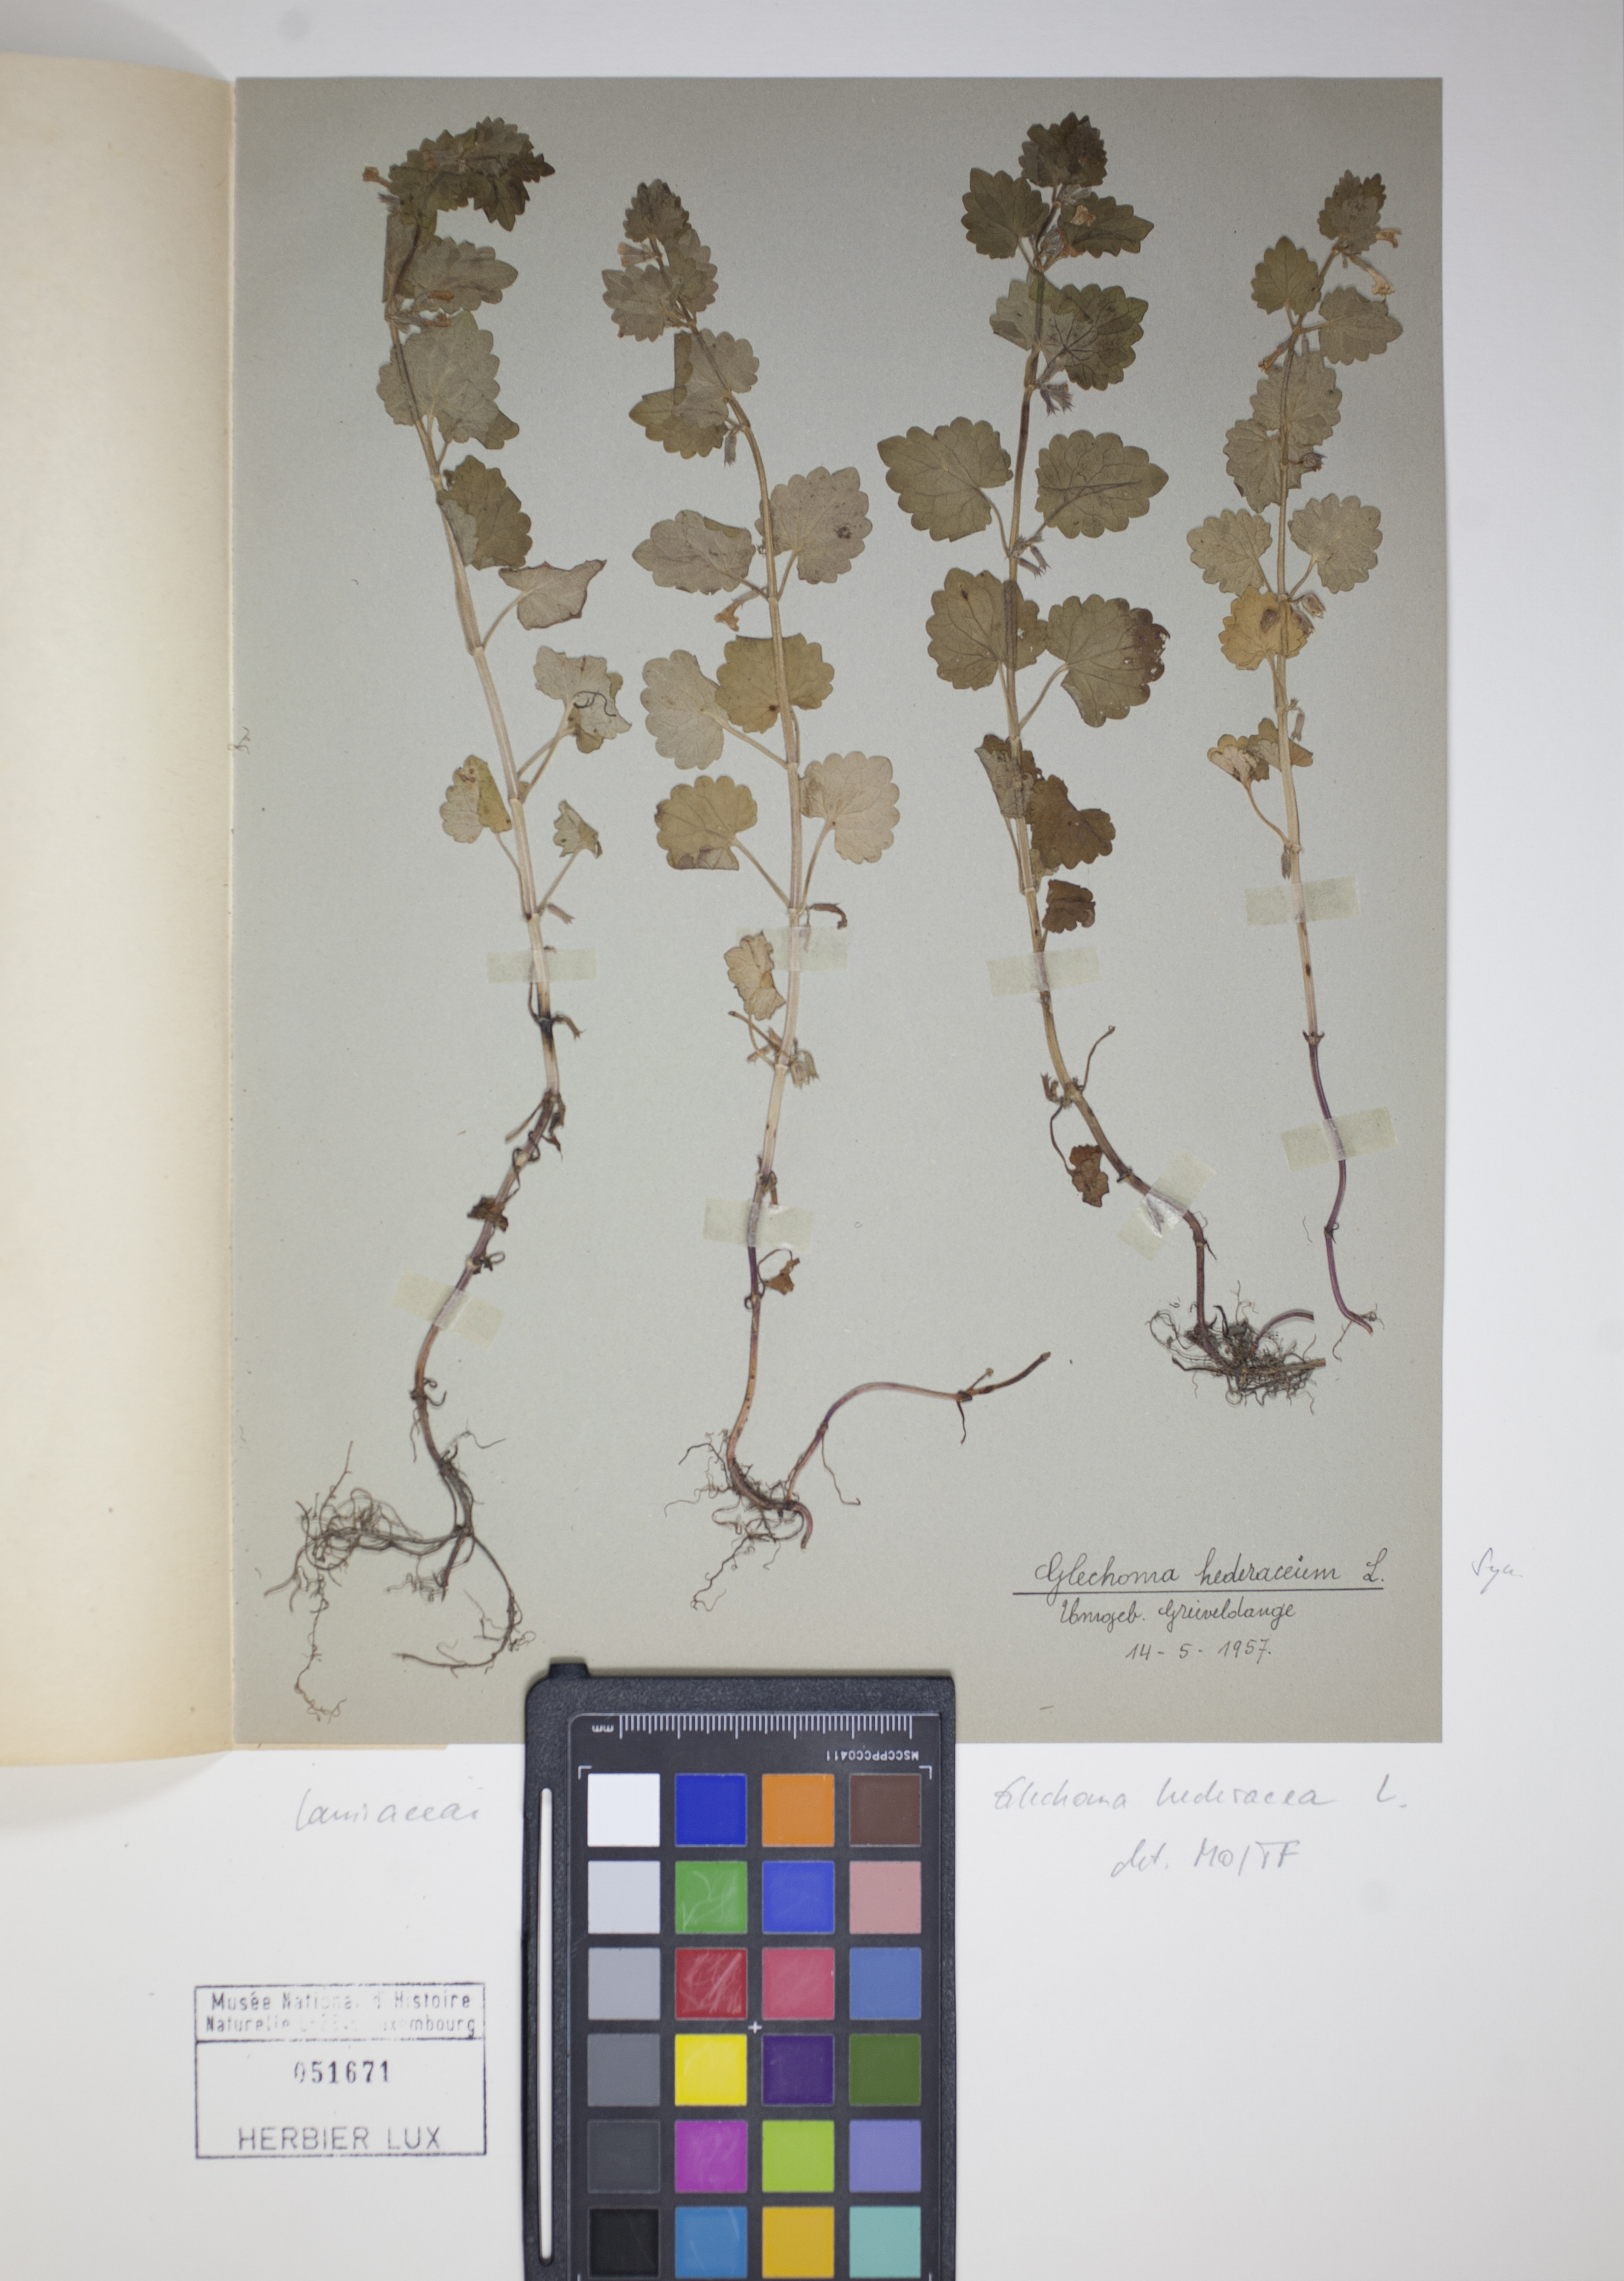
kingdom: Plantae
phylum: Tracheophyta
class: Magnoliopsida
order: Lamiales
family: Lamiaceae
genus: Glechoma
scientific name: Glechoma hederacea
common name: Ground ivy
